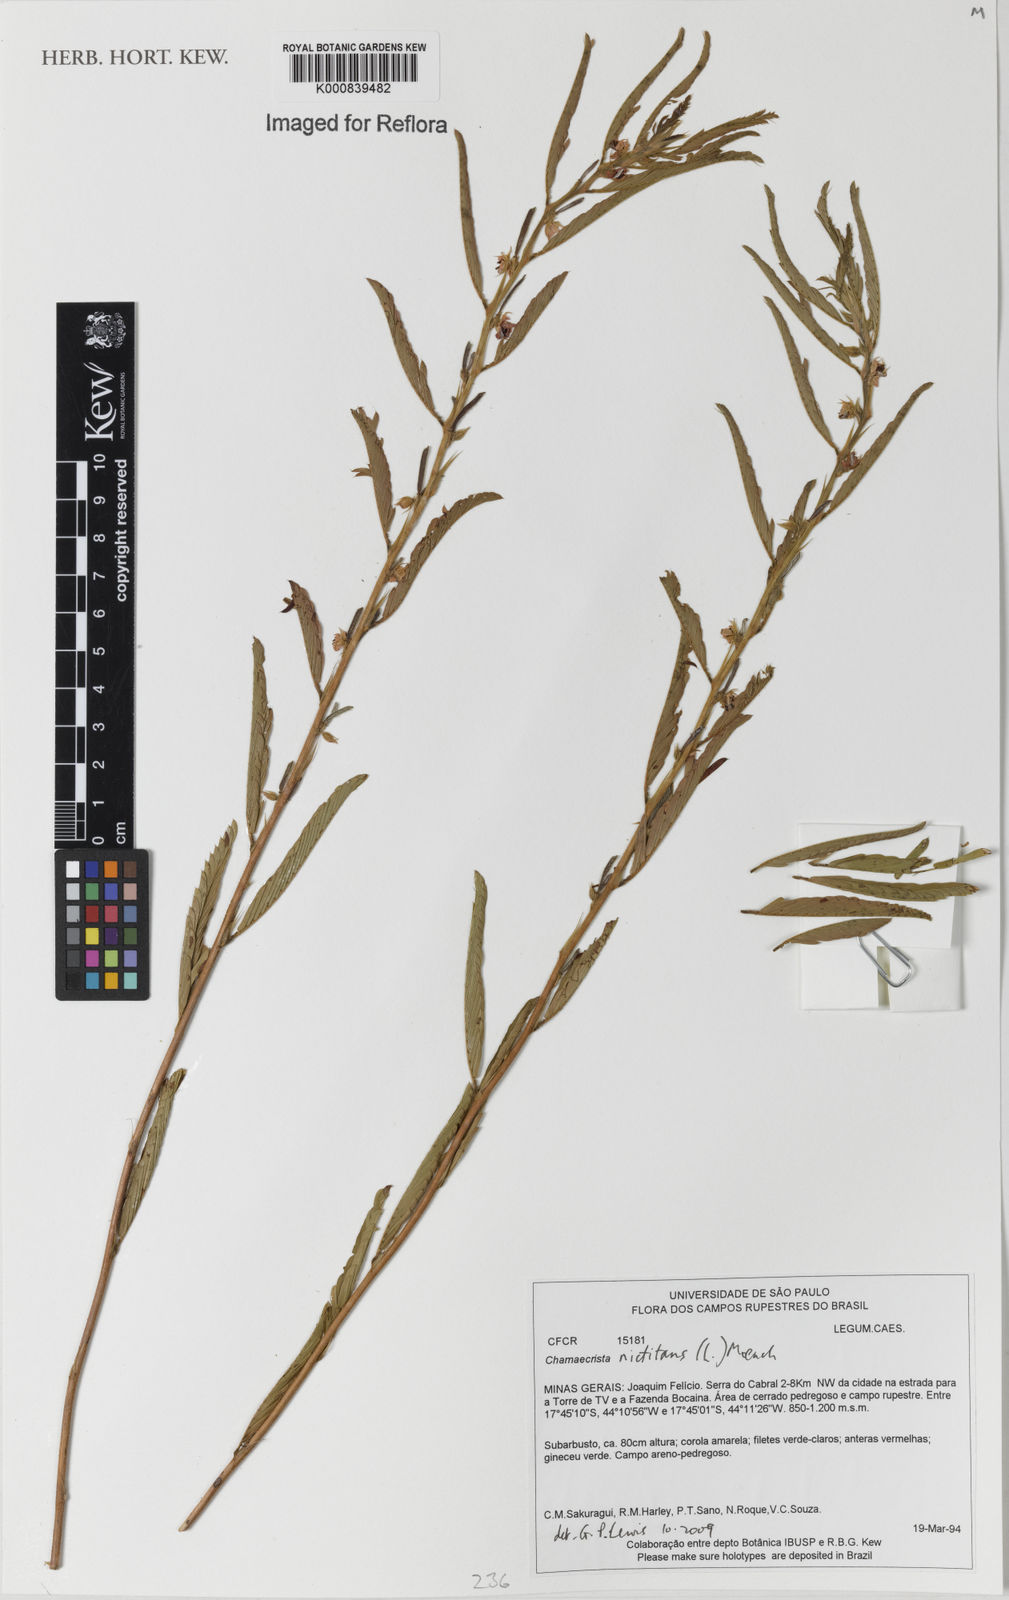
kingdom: Plantae
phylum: Tracheophyta
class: Magnoliopsida
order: Fabales
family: Fabaceae
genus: Chamaecrista
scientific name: Chamaecrista nictitans
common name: Sensitive cassia
